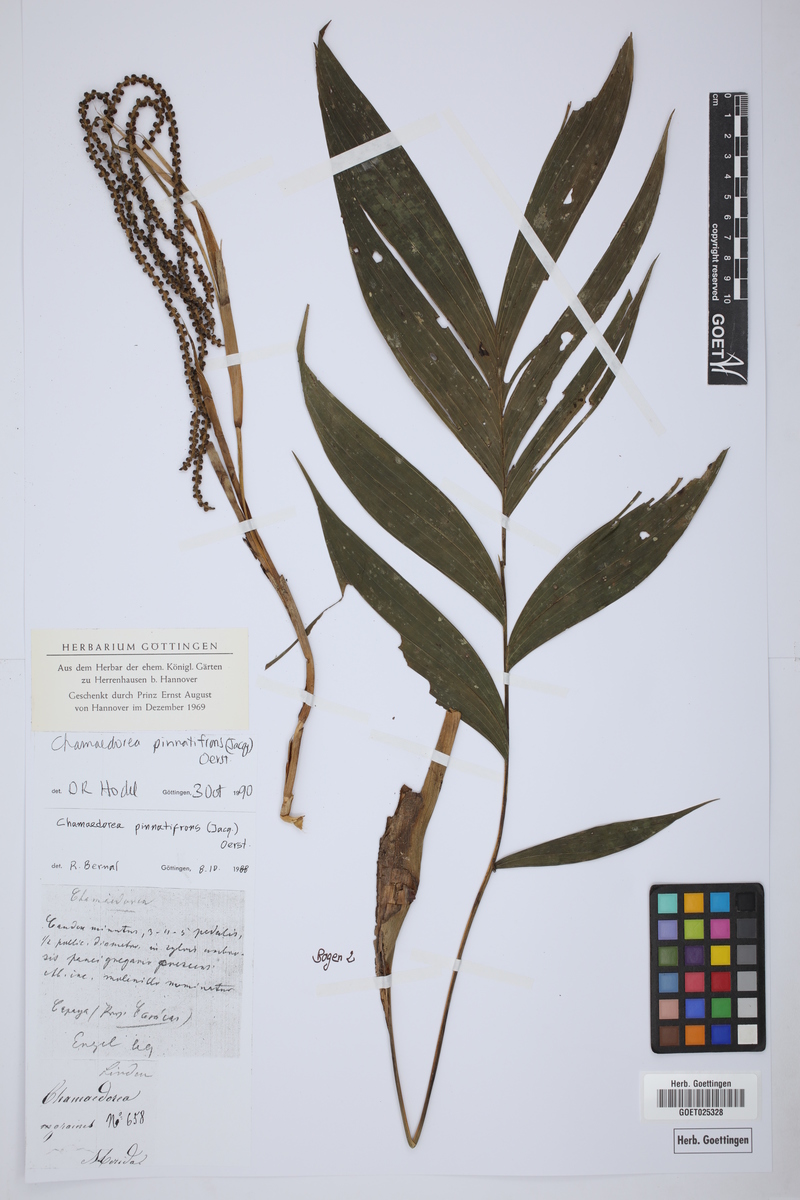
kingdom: Plantae
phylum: Tracheophyta
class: Liliopsida
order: Arecales
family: Arecaceae
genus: Chamaedorea
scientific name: Chamaedorea pinnatifrons
